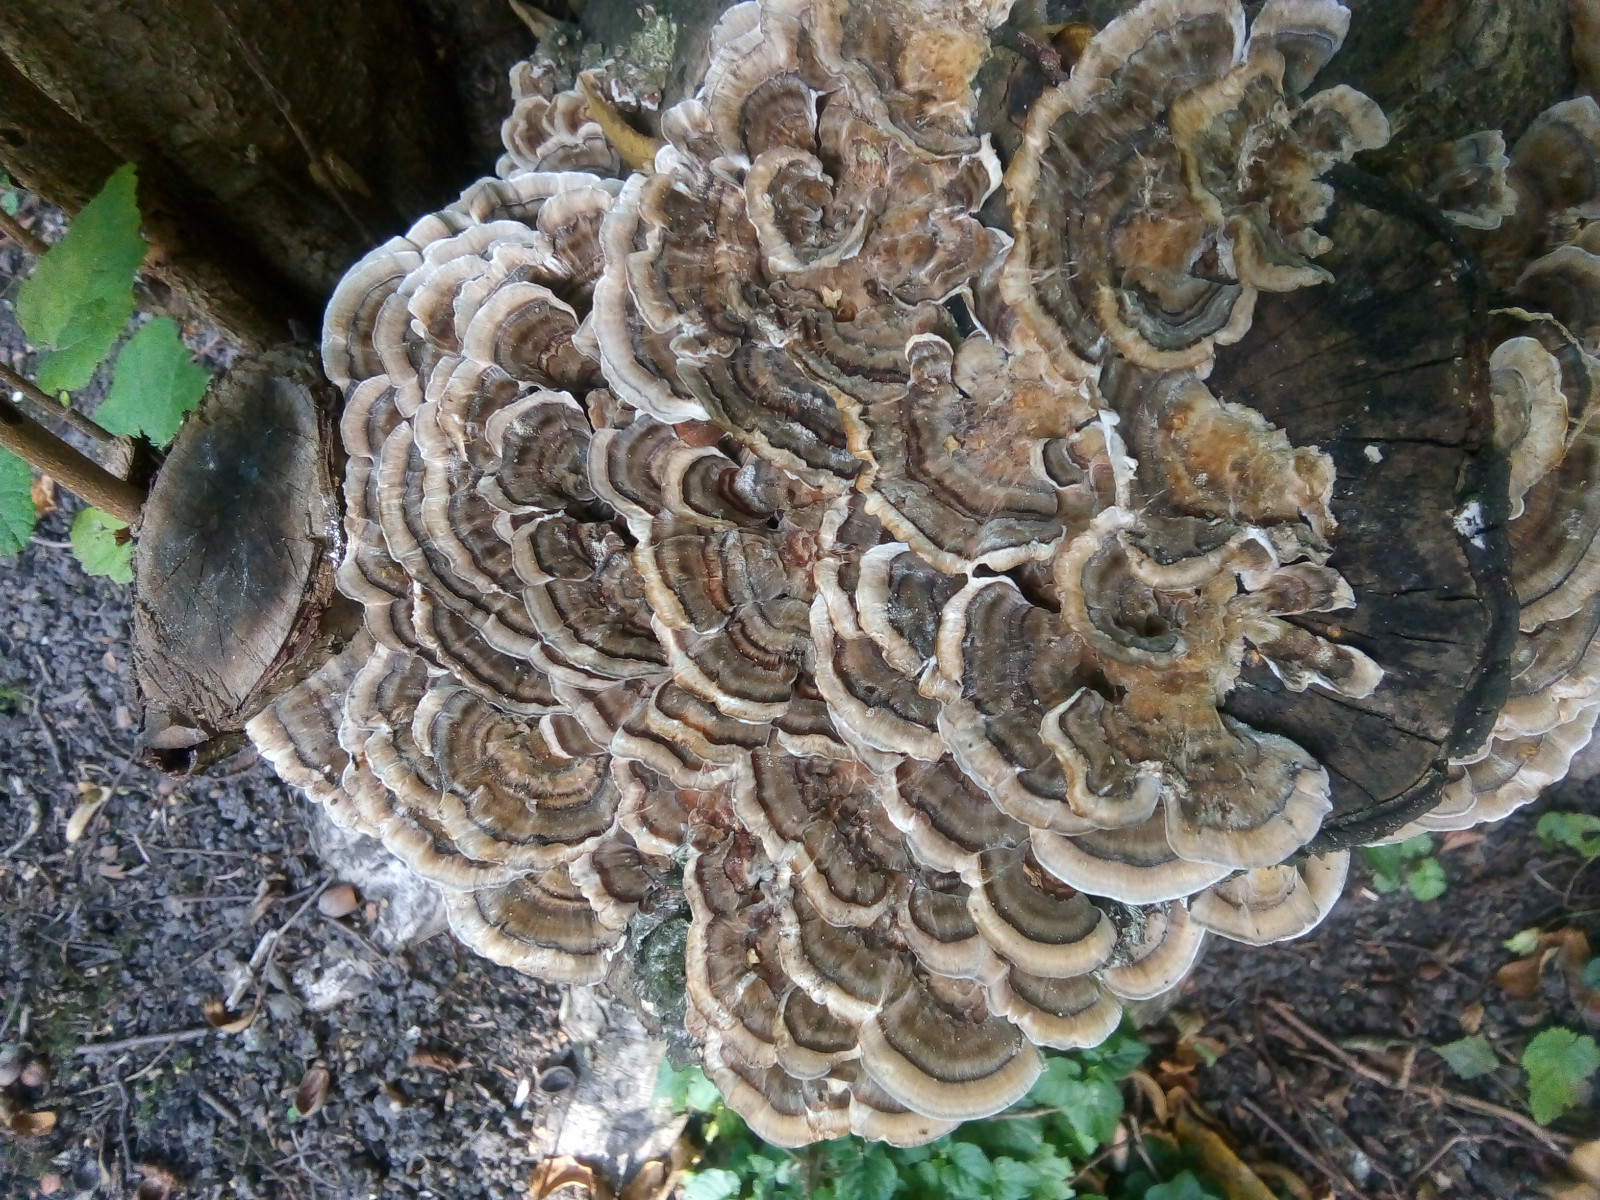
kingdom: Fungi
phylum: Basidiomycota
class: Agaricomycetes
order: Polyporales
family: Polyporaceae
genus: Trametes
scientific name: Trametes versicolor
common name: broget læderporesvamp
